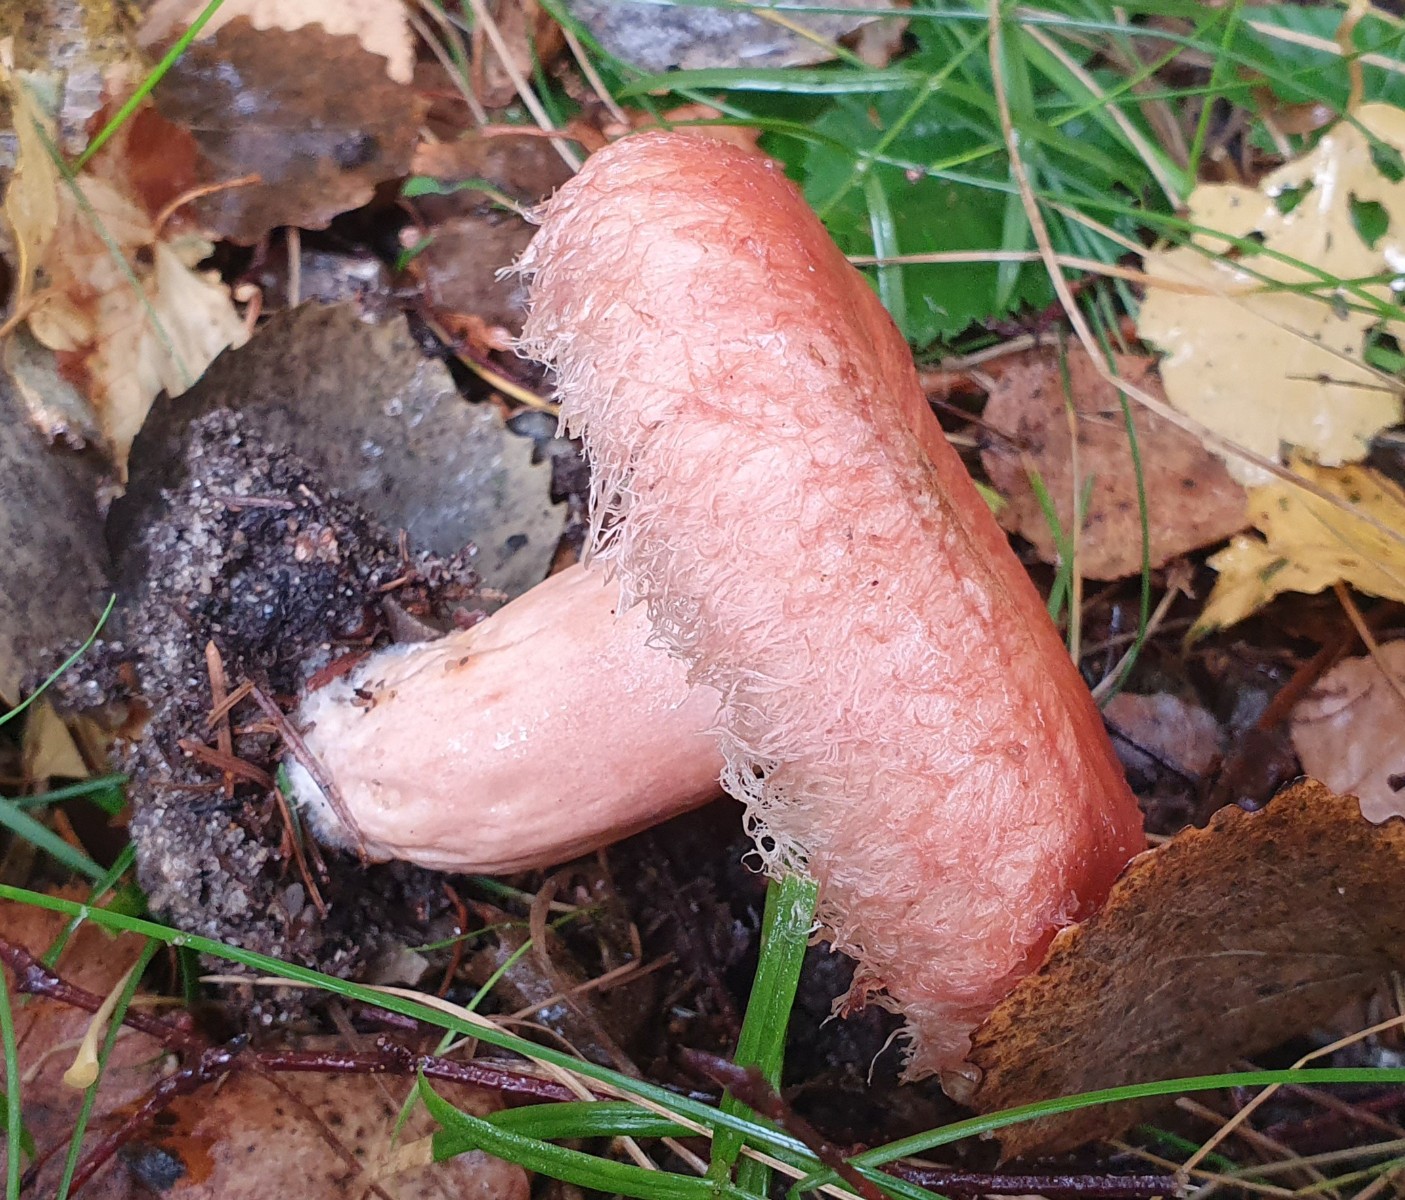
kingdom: Fungi
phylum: Basidiomycota
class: Agaricomycetes
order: Russulales
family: Russulaceae
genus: Lactarius
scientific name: Lactarius torminosus
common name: skægget mælkehat
